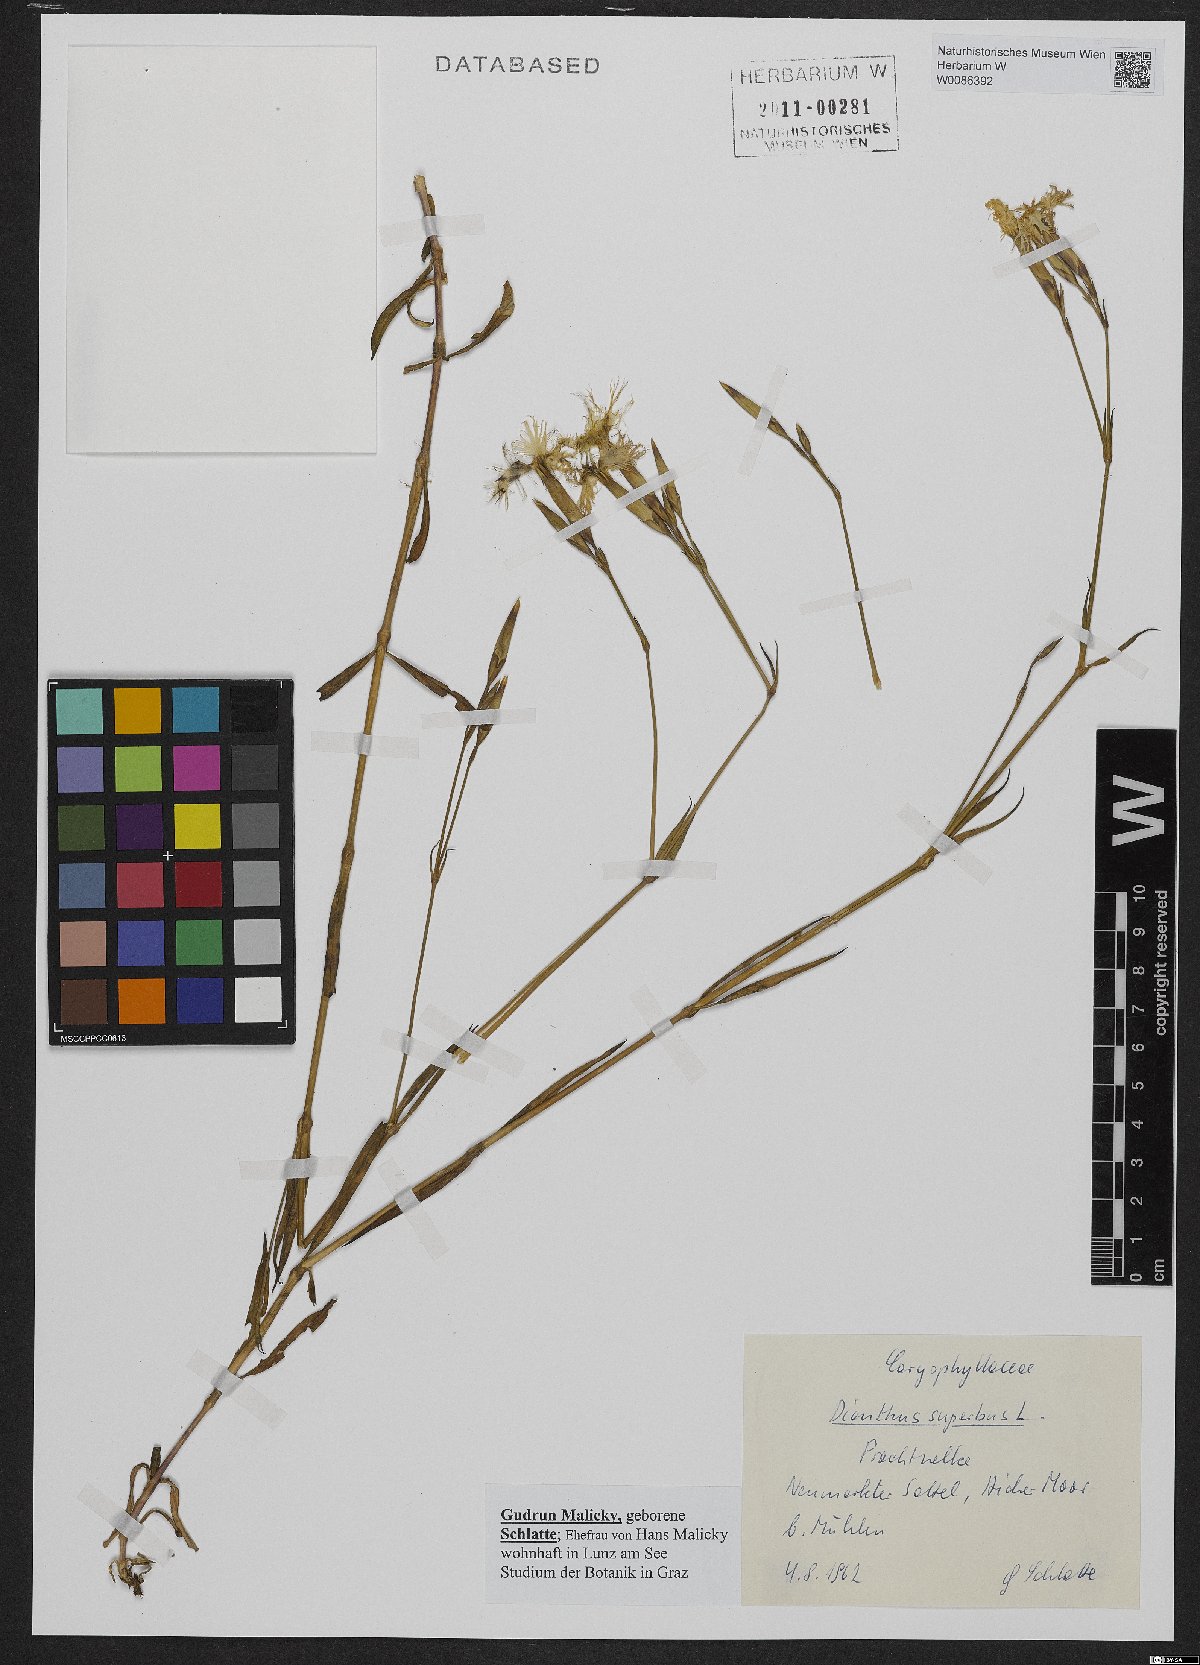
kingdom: Plantae
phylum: Tracheophyta
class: Magnoliopsida
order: Caryophyllales
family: Caryophyllaceae
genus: Dianthus
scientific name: Dianthus superbus
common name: Fringed pink
